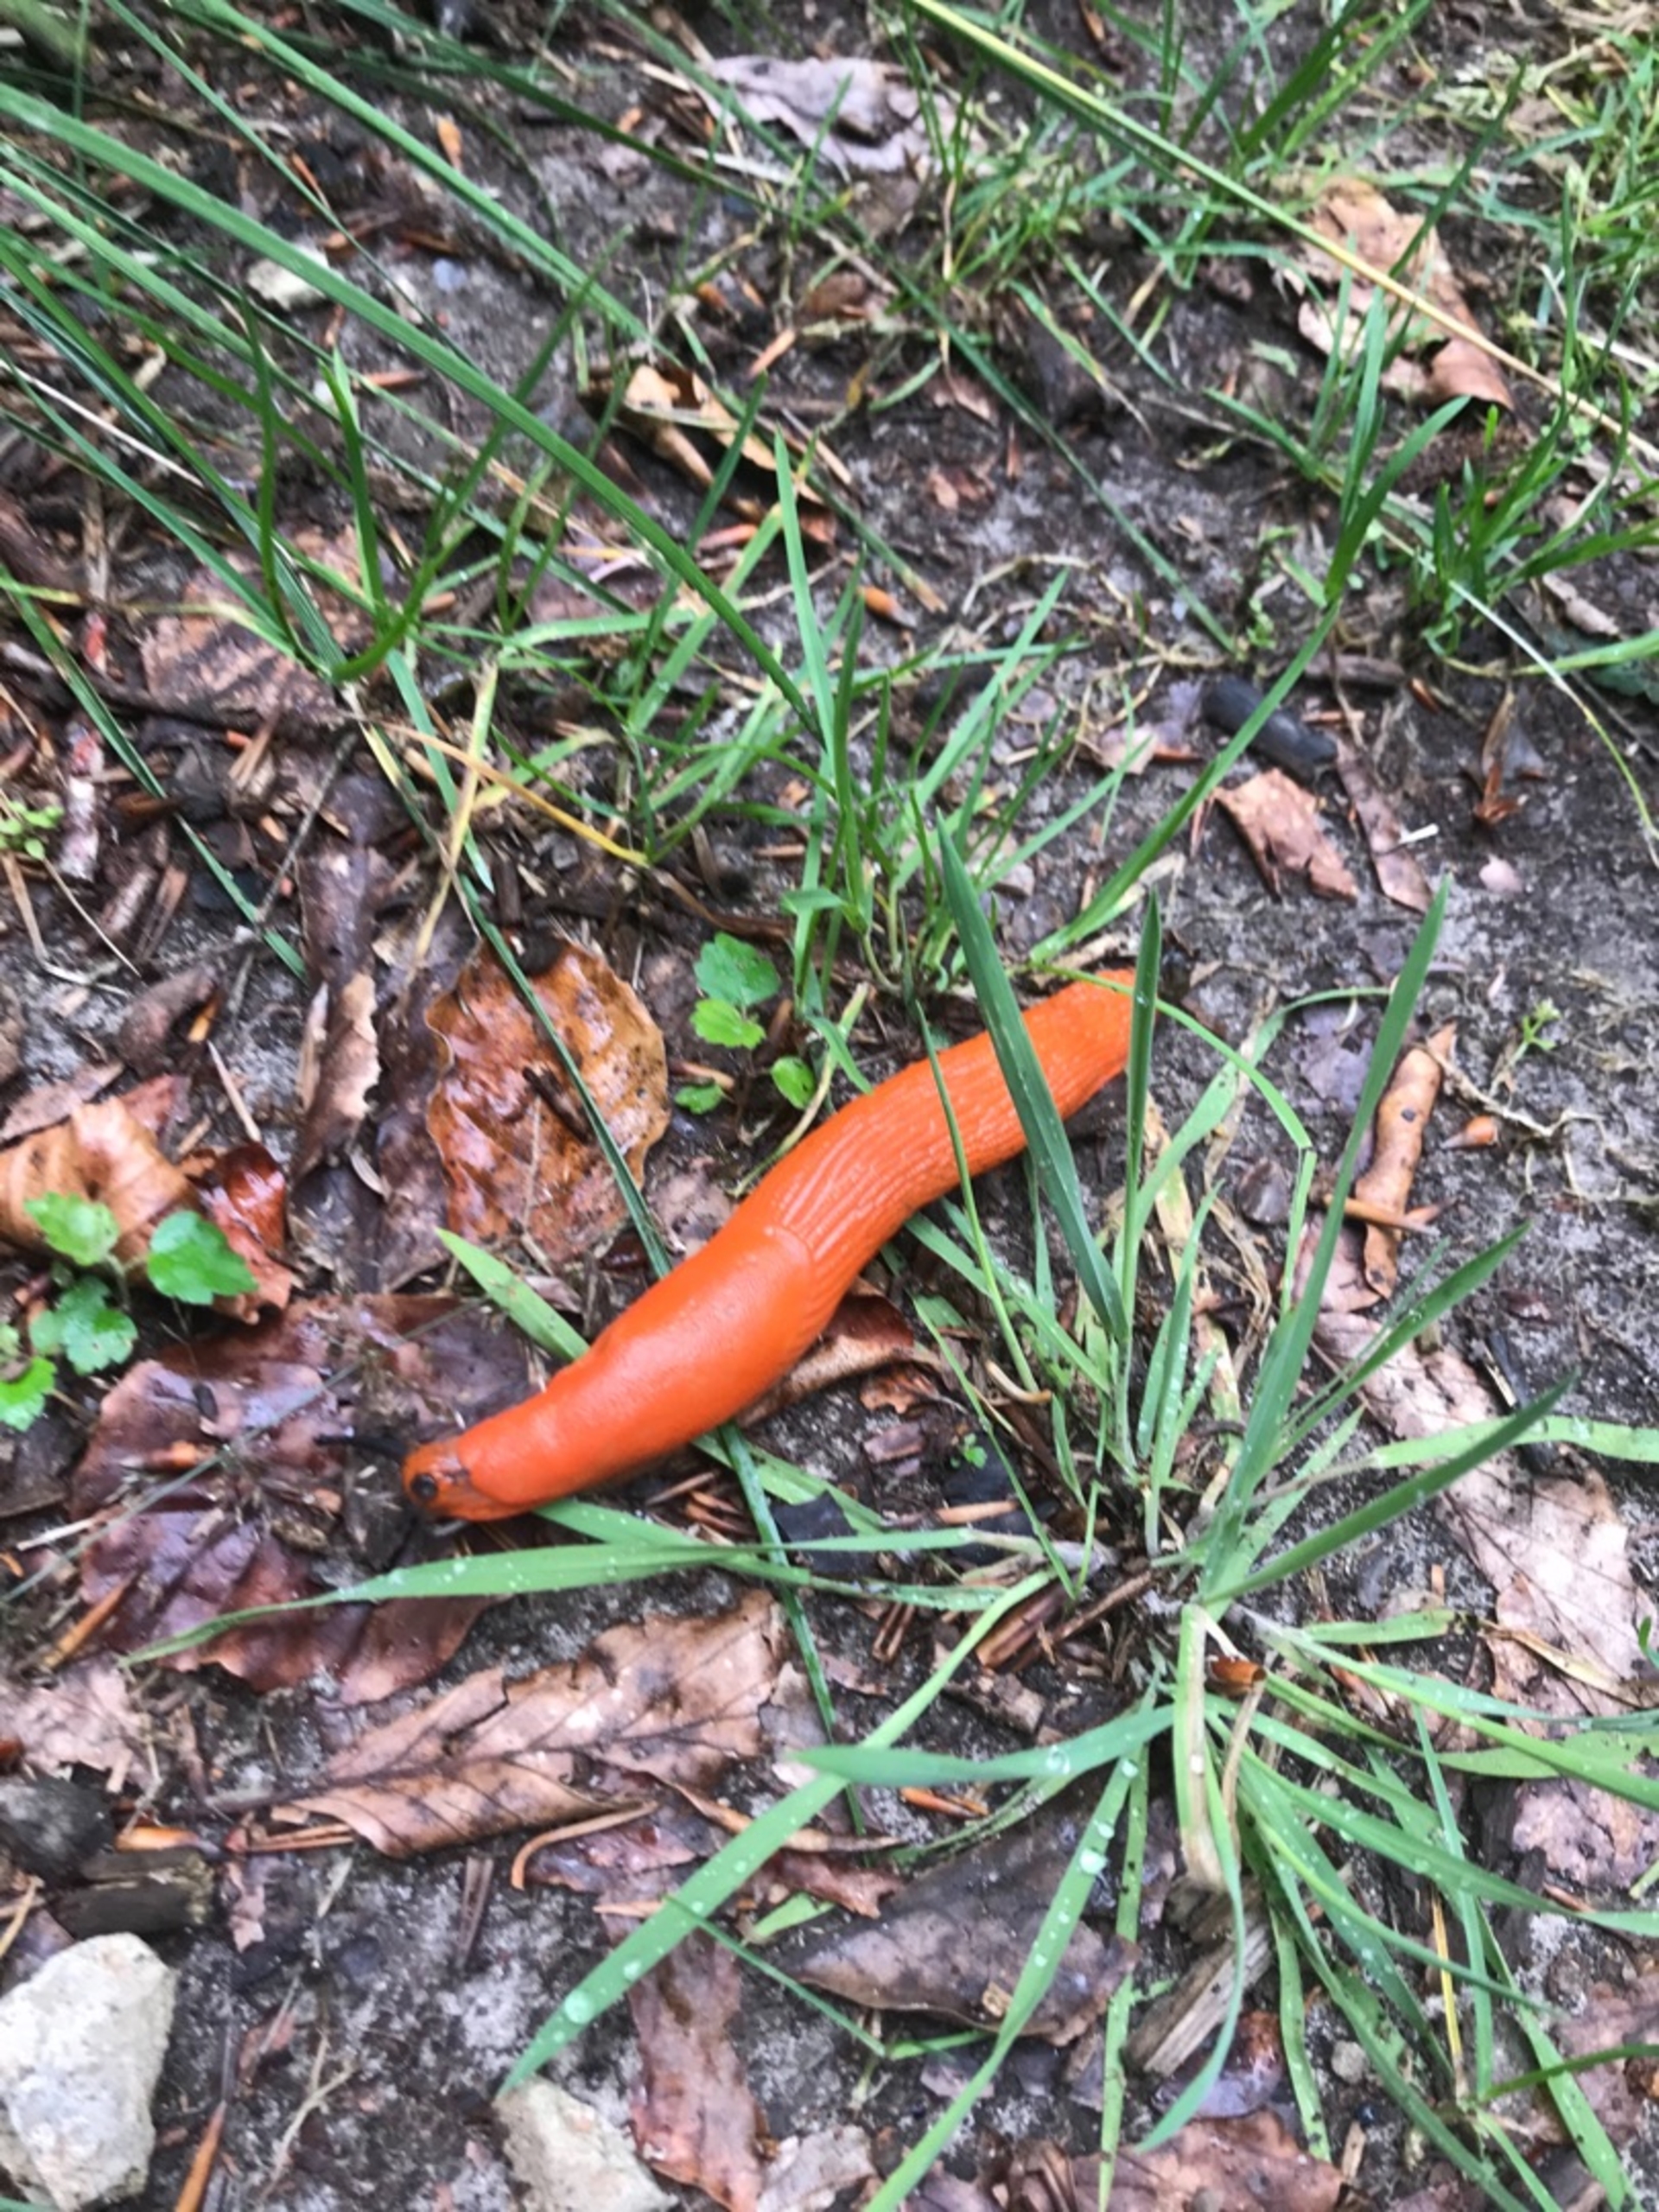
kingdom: Animalia
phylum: Mollusca
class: Gastropoda
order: Stylommatophora
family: Arionidae
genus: Arion
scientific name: Arion rufus
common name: Rød skovsnegl
